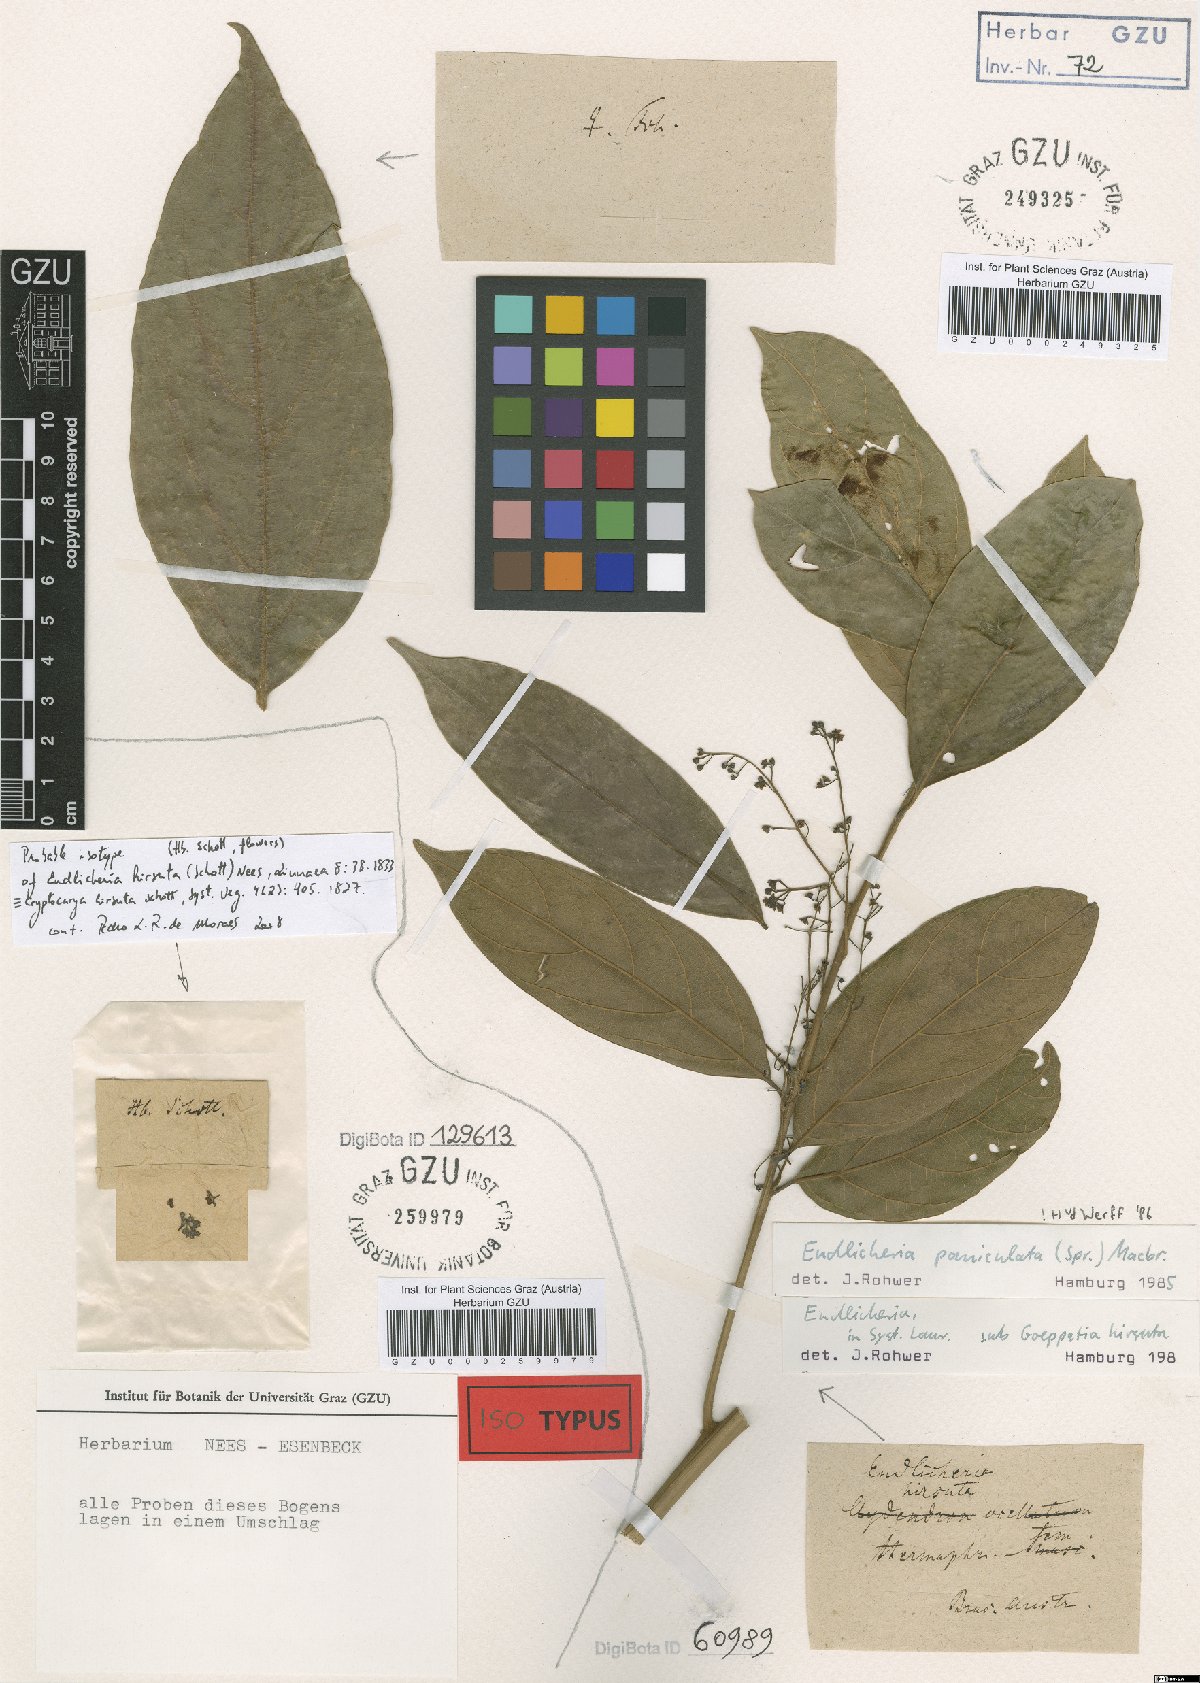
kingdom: Plantae
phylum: Tracheophyta
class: Magnoliopsida
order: Laurales
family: Lauraceae
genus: Endlicheria
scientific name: Endlicheria paniculata
